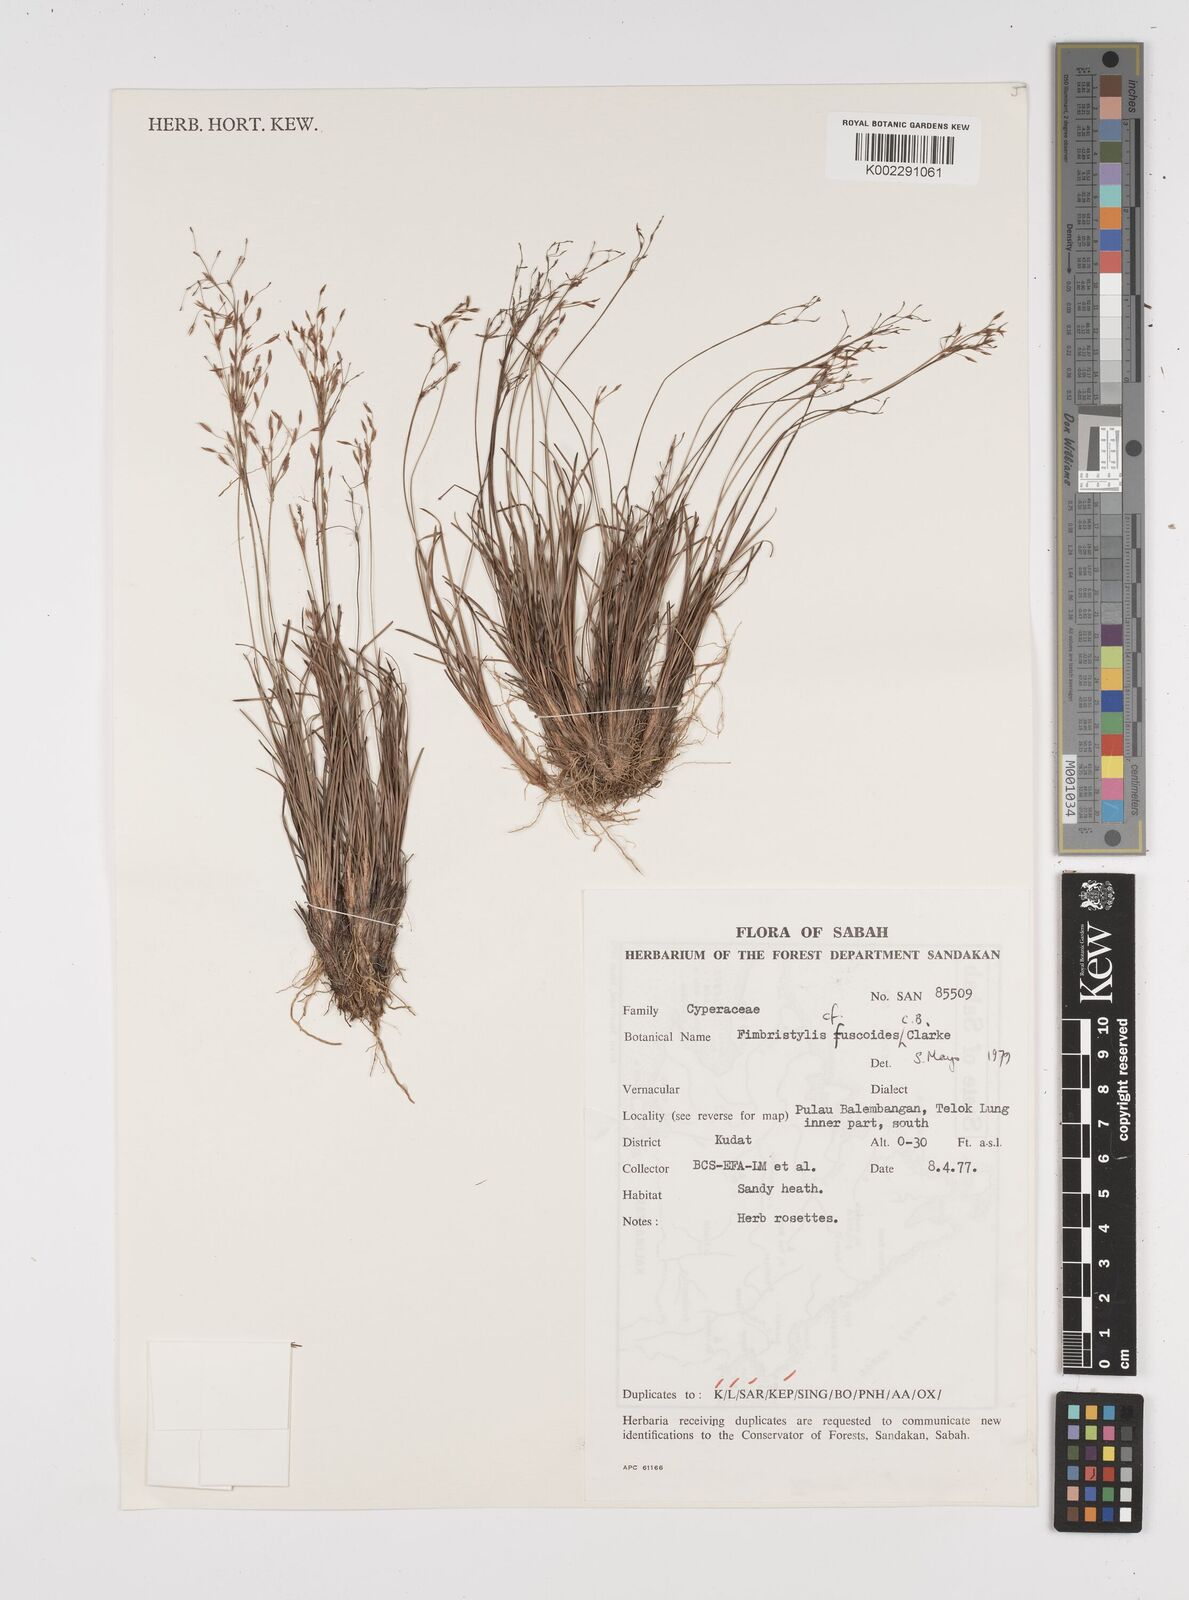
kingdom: Plantae
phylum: Tracheophyta
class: Liliopsida
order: Poales
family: Cyperaceae
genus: Fimbristylis
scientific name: Fimbristylis fuscoides
